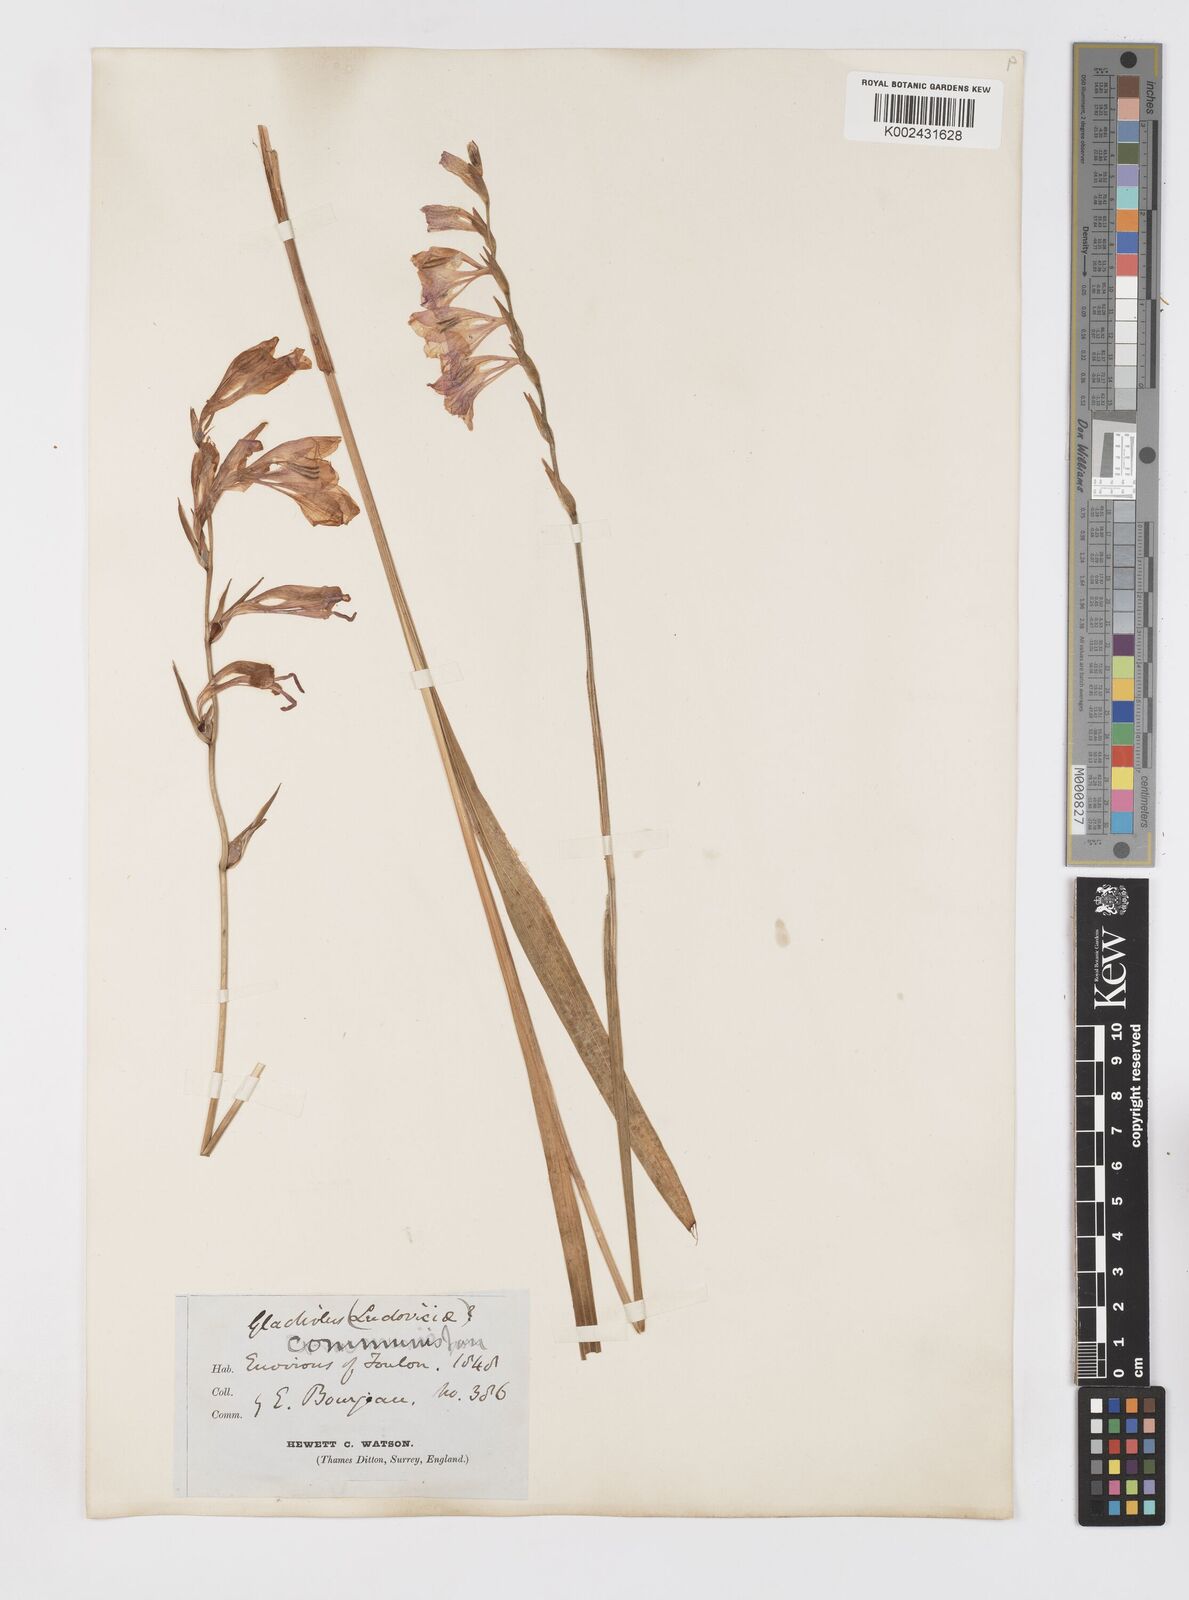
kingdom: Plantae
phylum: Tracheophyta
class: Liliopsida
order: Asparagales
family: Iridaceae
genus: Gladiolus
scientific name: Gladiolus communis
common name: Eastern gladiolus
